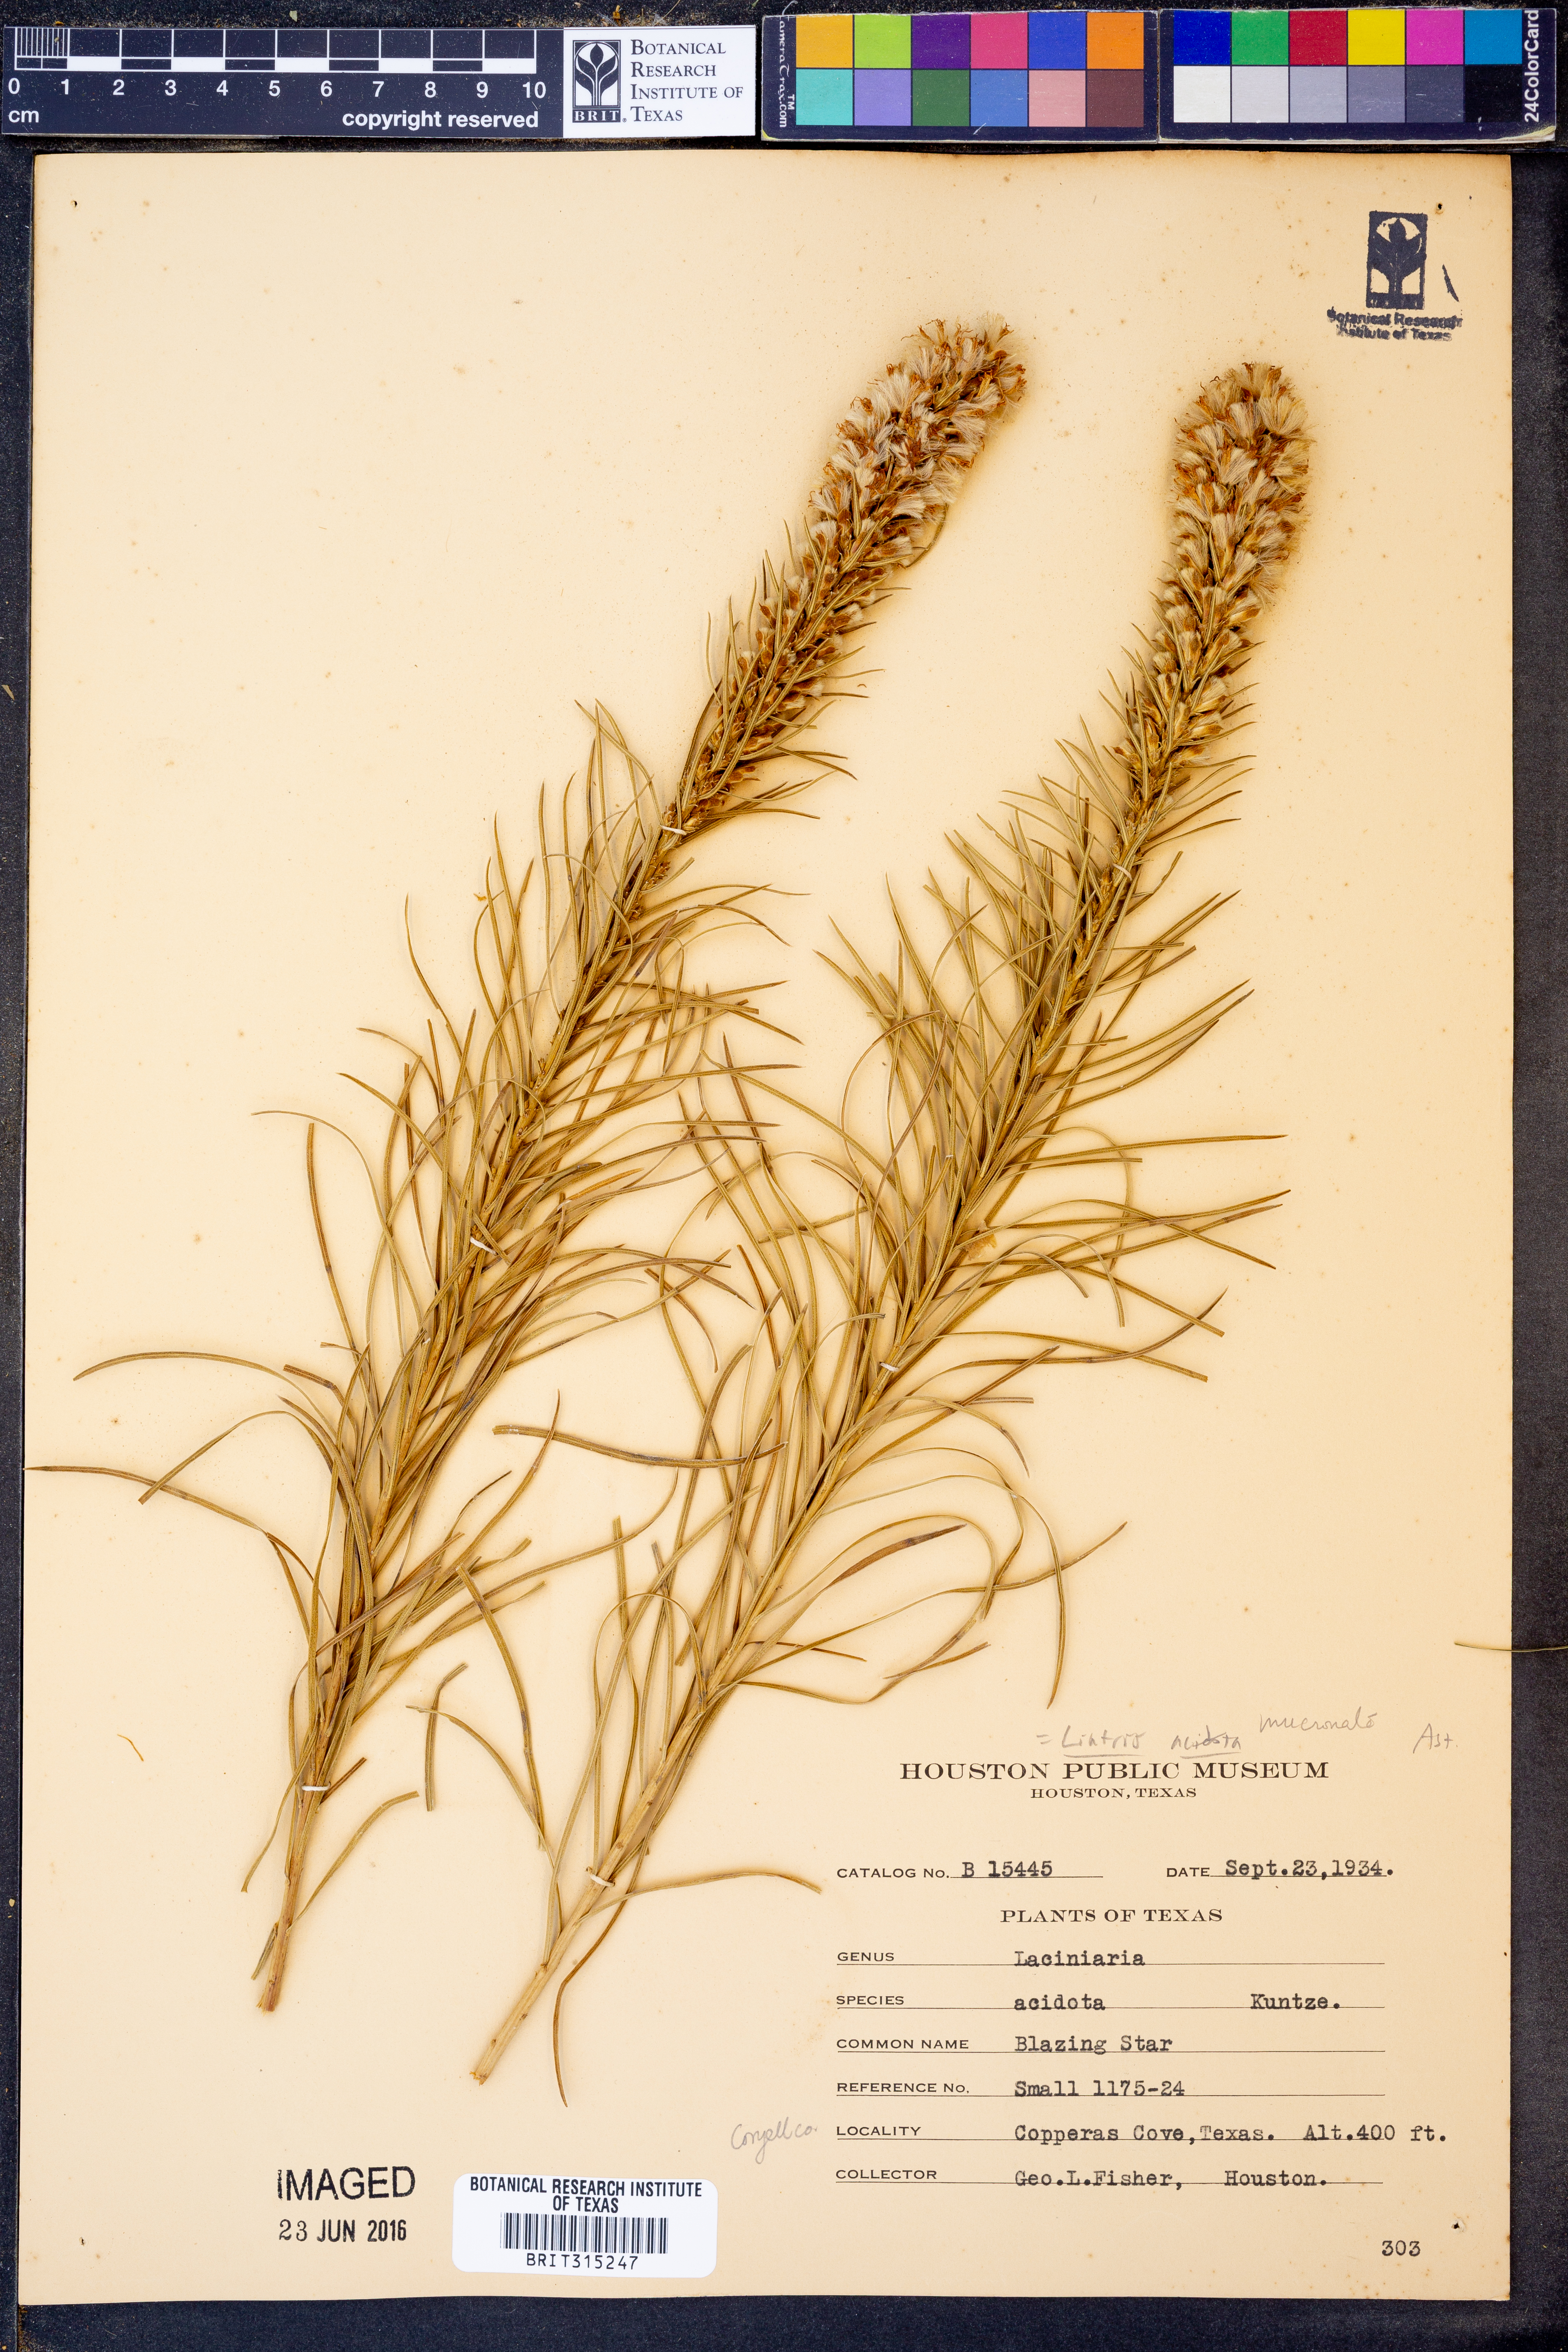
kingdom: Plantae
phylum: Tracheophyta
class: Magnoliopsida
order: Asterales
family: Asteraceae
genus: Liatris
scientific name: Liatris acidota
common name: Gulf coast gayfeather
